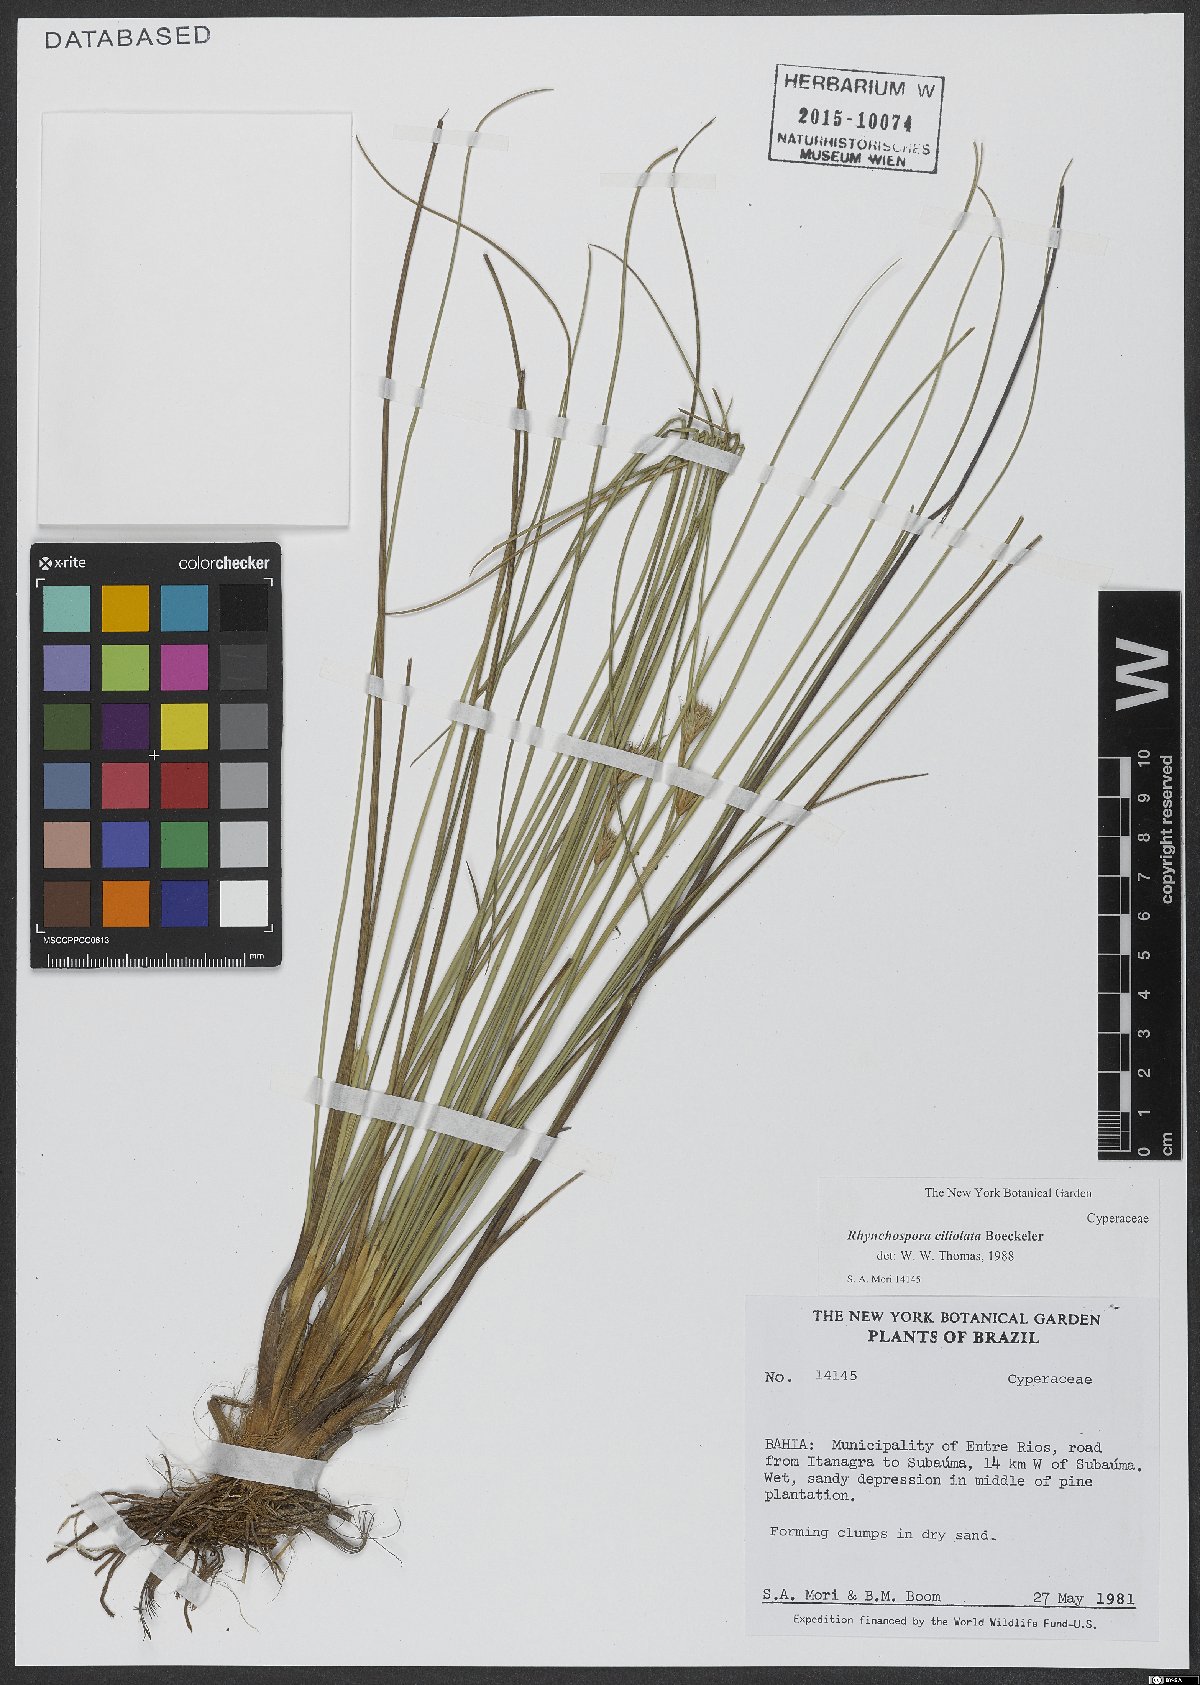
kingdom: Plantae
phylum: Tracheophyta
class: Liliopsida
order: Poales
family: Cyperaceae
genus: Rhynchospora
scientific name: Rhynchospora ciliolata
